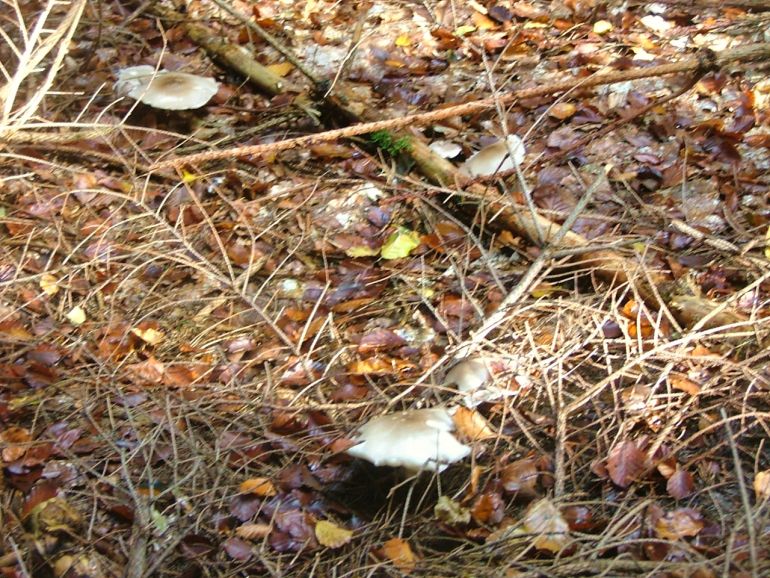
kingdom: Fungi
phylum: Basidiomycota
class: Agaricomycetes
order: Agaricales
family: Tricholomataceae
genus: Clitocybe
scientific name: Clitocybe nebularis
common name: tåge-tragthat
